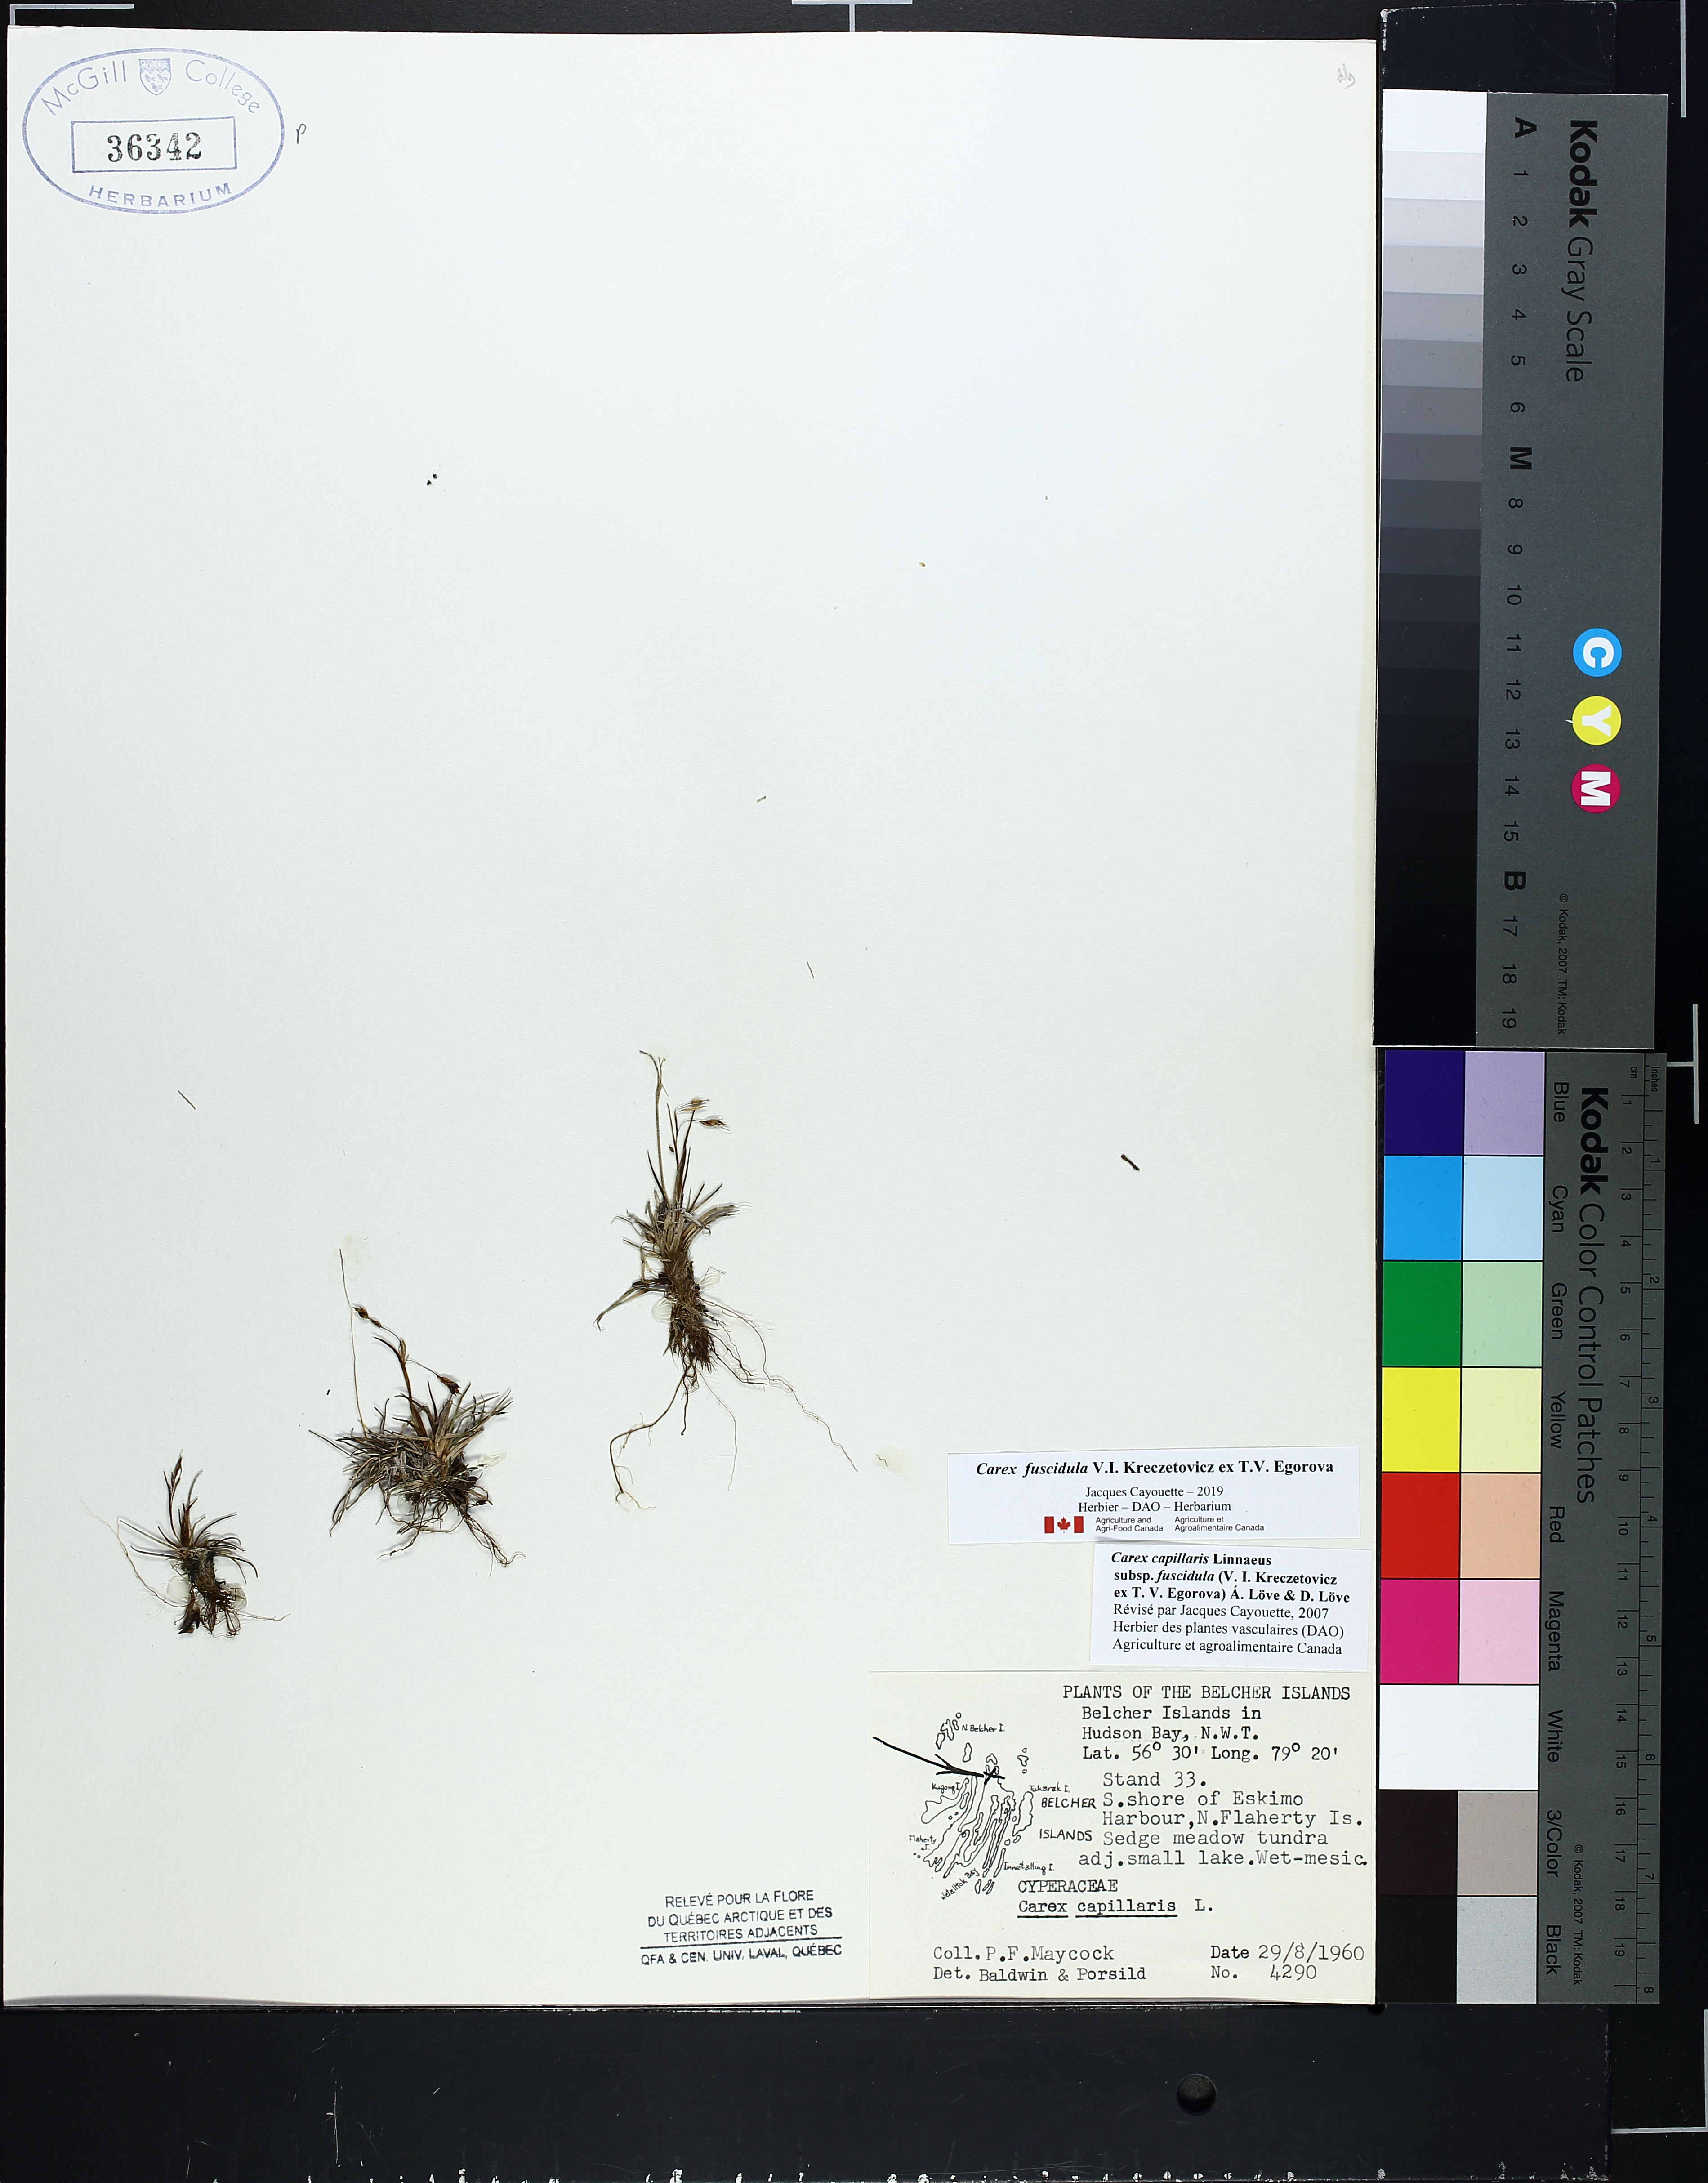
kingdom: Plantae
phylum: Tracheophyta
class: Liliopsida
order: Poales
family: Cyperaceae
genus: Carex
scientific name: Carex capillaris
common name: Hair sedge
